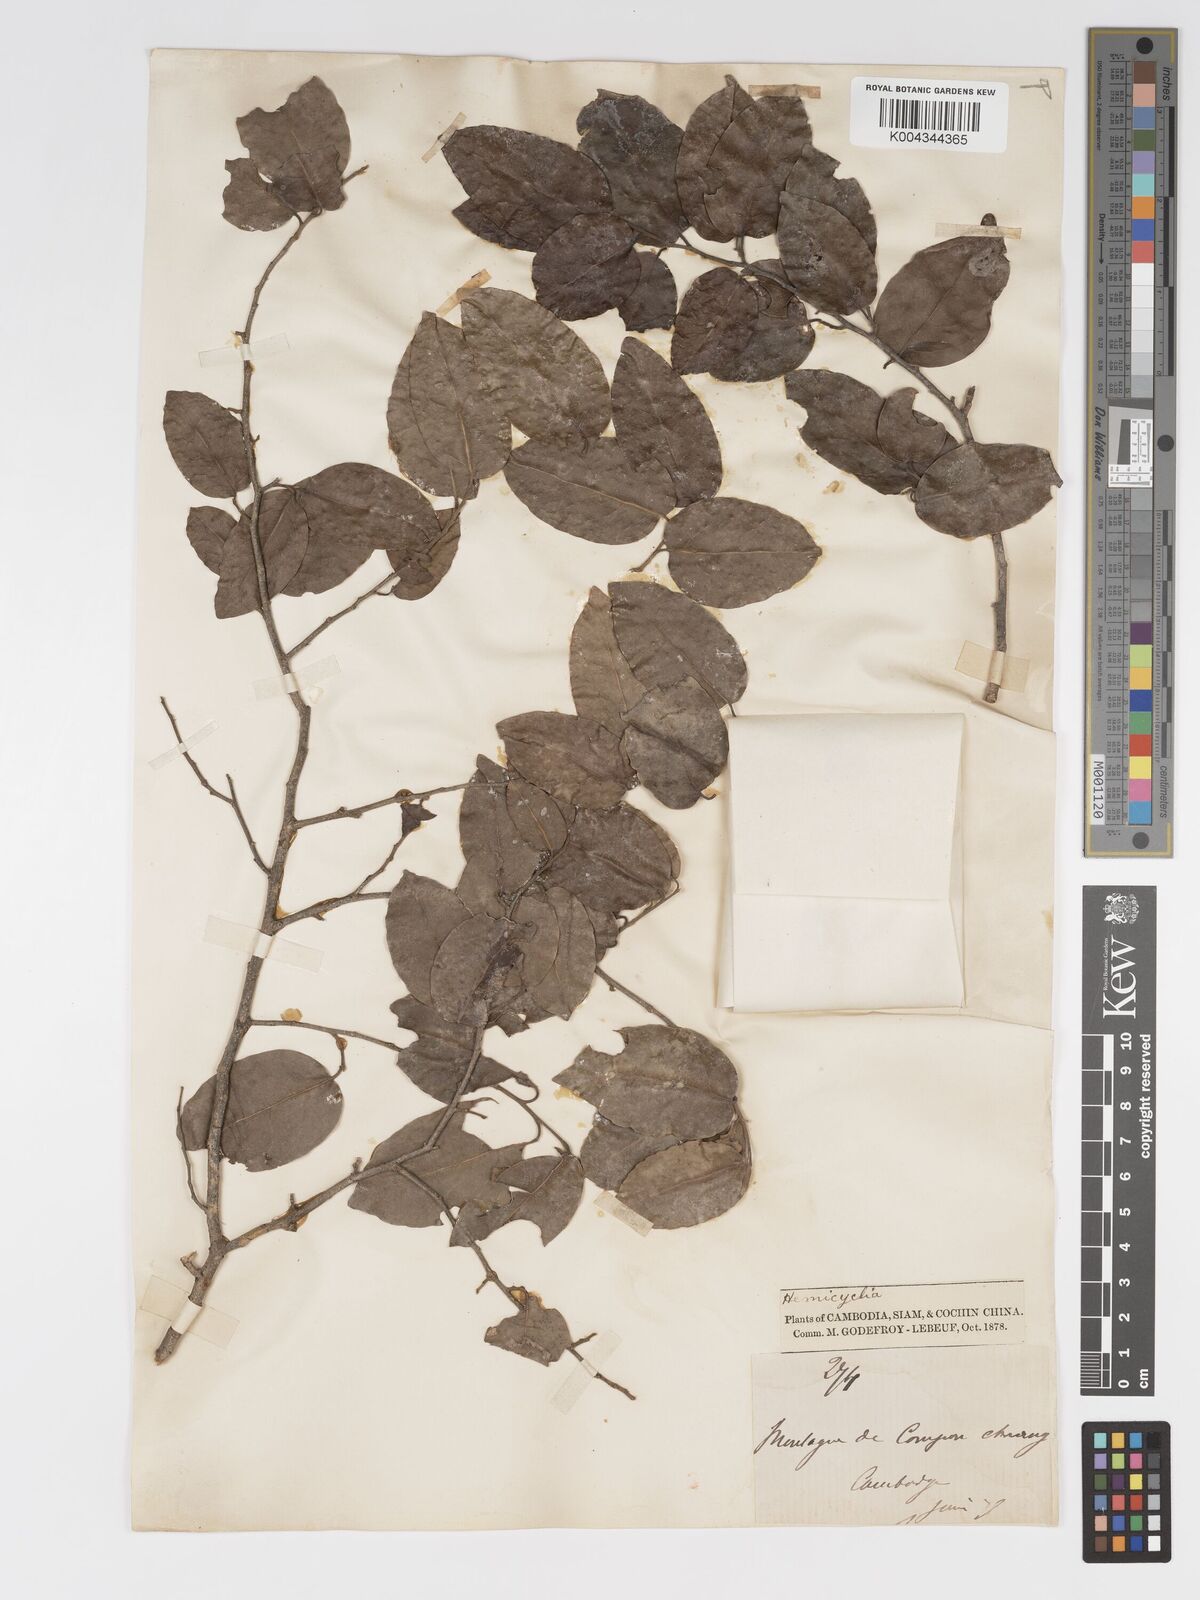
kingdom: Plantae
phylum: Tracheophyta
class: Magnoliopsida
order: Malpighiales
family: Putranjivaceae
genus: Drypetes
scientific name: Drypetes cambodica
